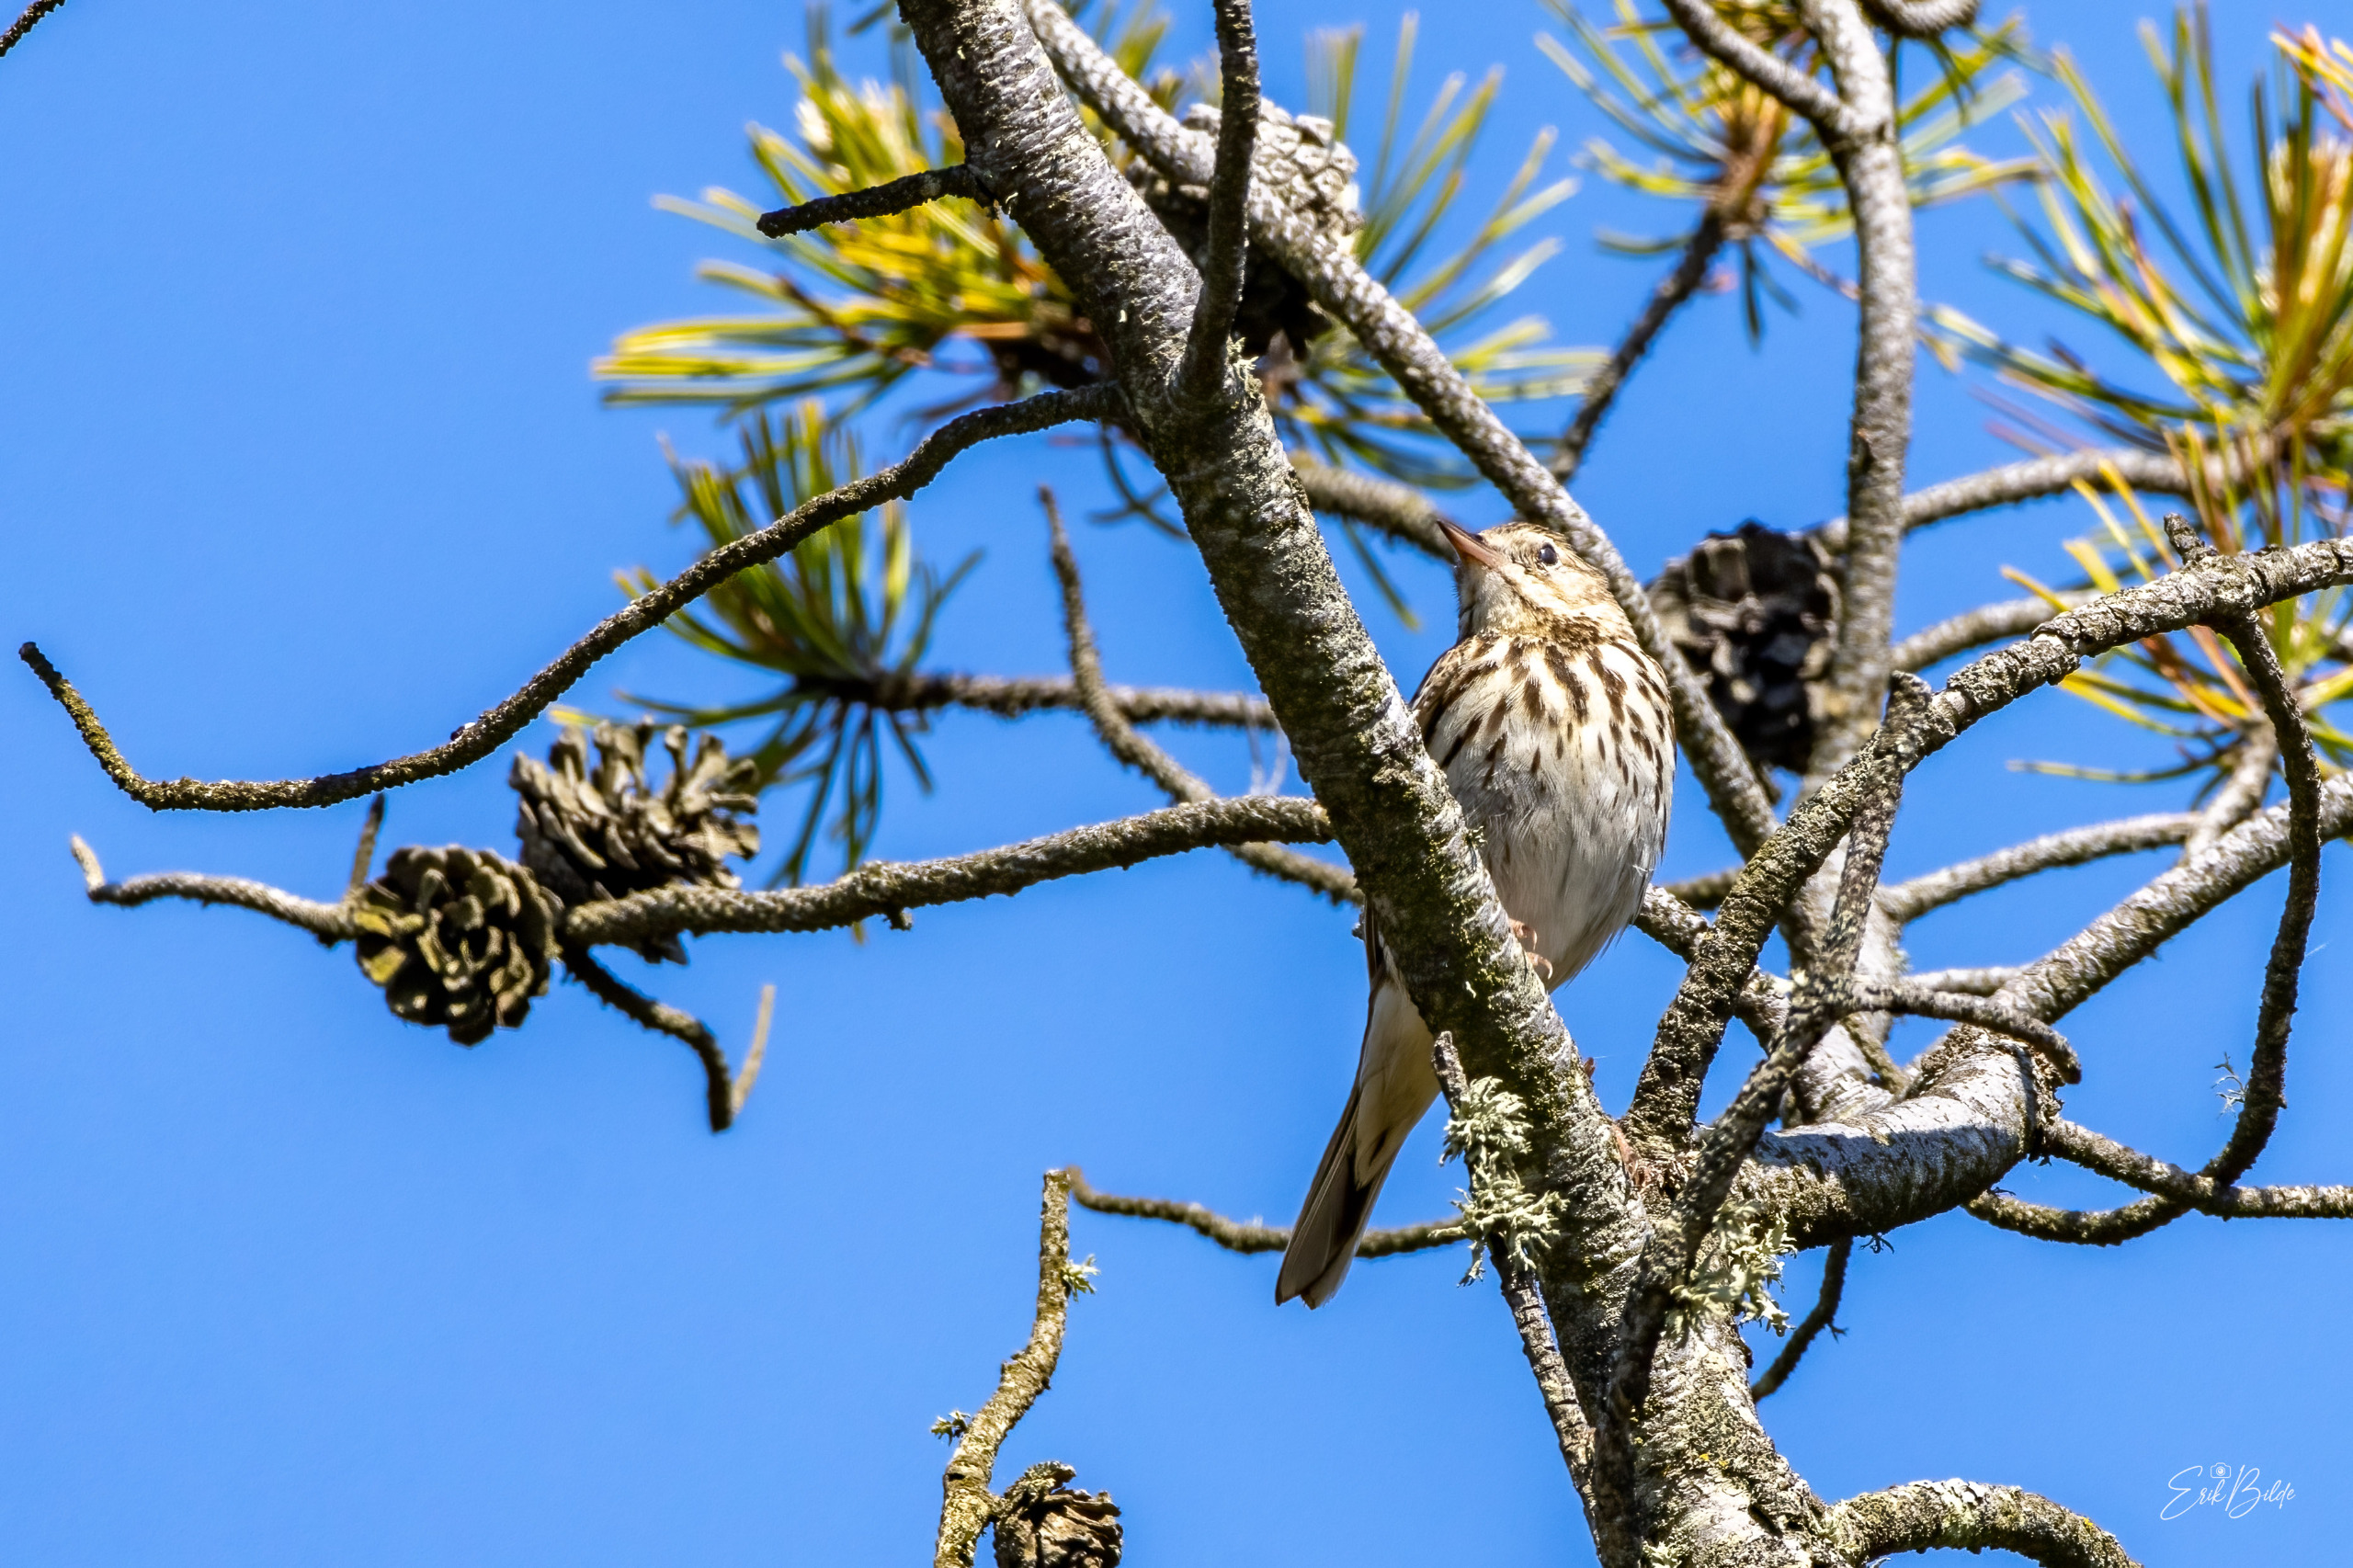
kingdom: Animalia
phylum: Chordata
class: Aves
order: Passeriformes
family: Motacillidae
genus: Anthus
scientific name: Anthus trivialis
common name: Skovpiber
